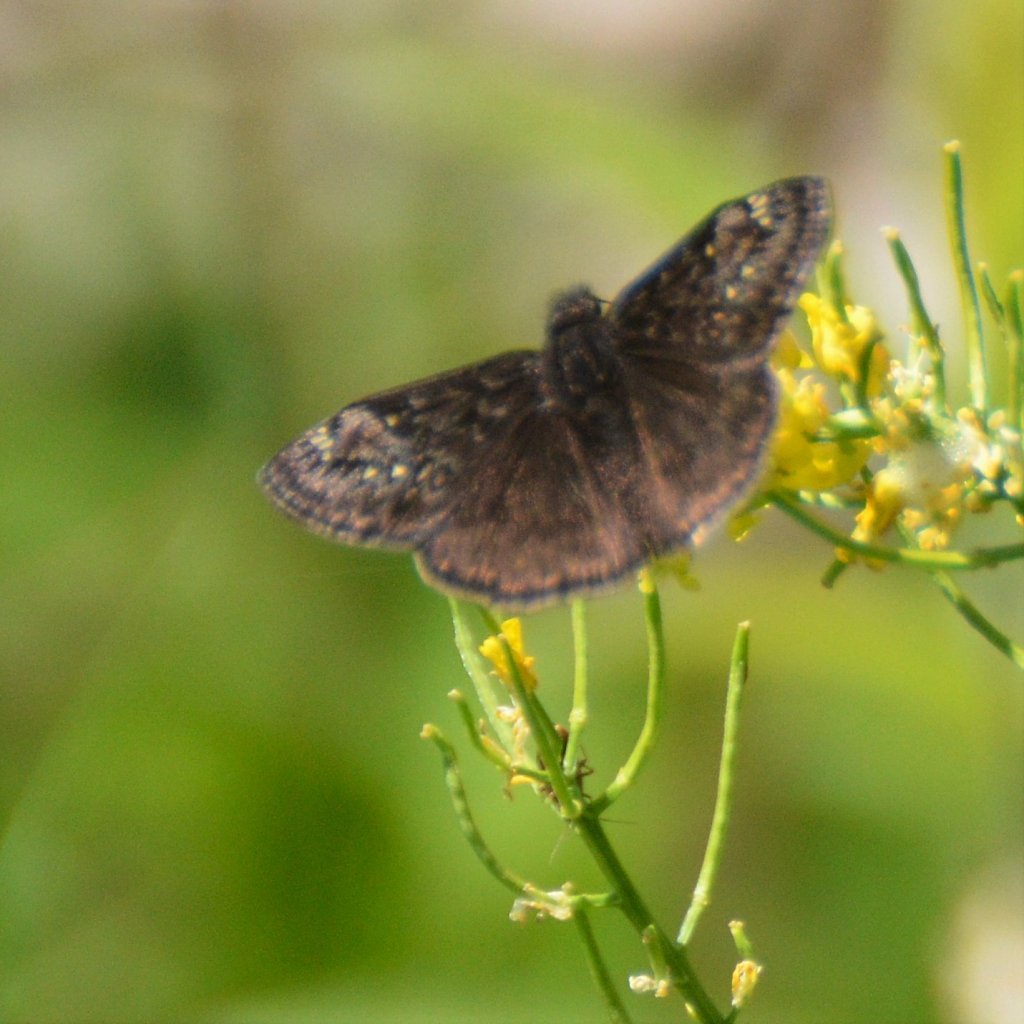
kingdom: Animalia
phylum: Arthropoda
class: Insecta
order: Lepidoptera
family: Hesperiidae
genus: Gesta
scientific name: Gesta
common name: Juvenal's Duskywing
